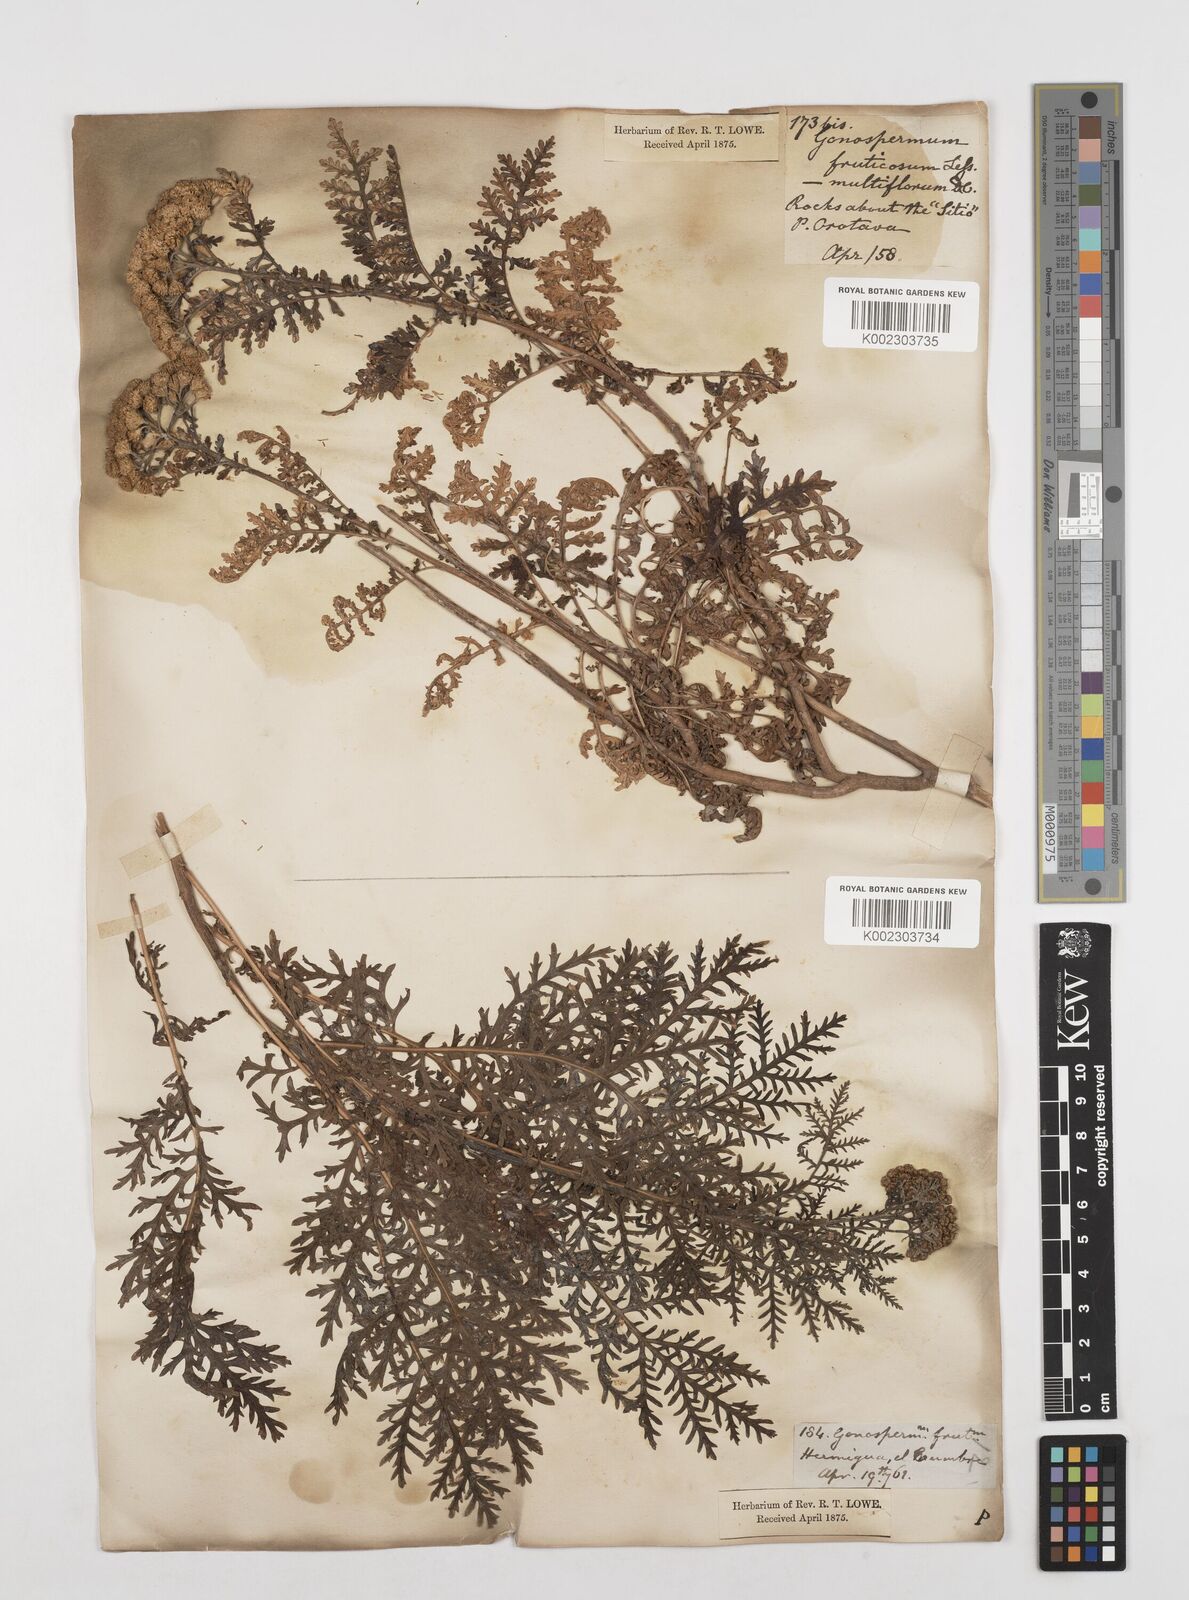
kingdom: Plantae
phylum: Tracheophyta
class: Magnoliopsida
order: Asterales
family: Asteraceae
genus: Gonospermum
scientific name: Gonospermum fruticosum
